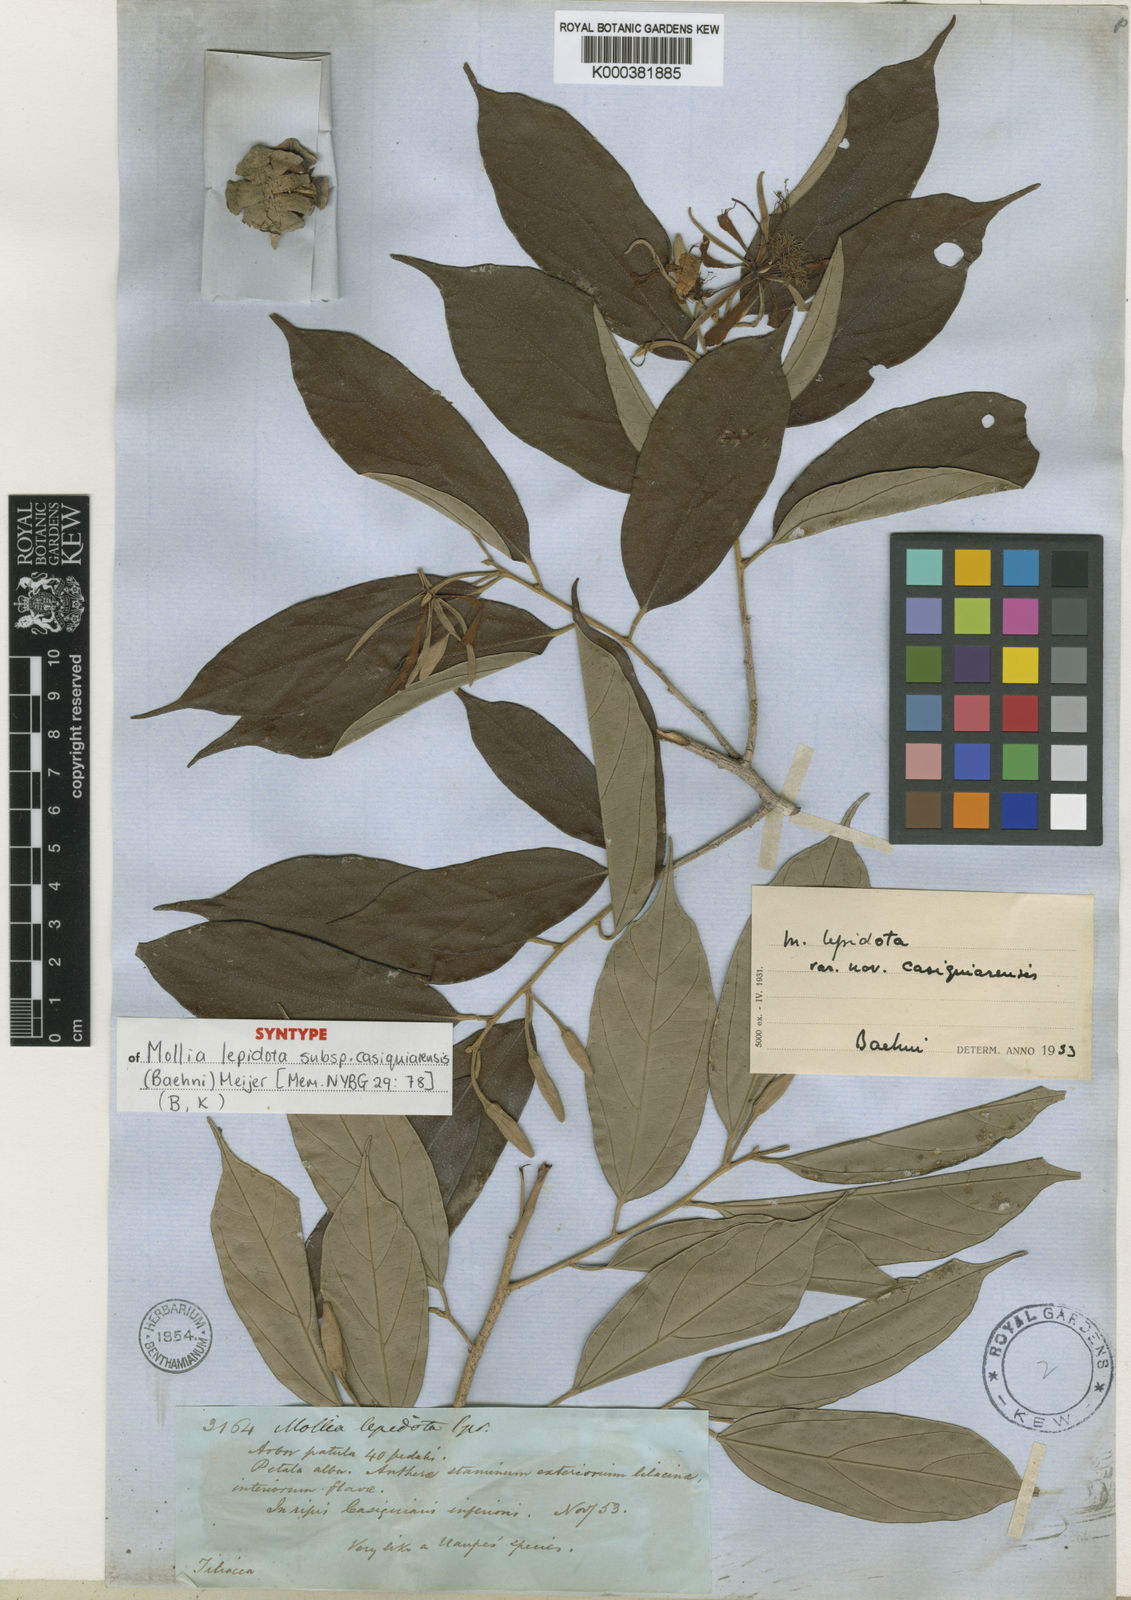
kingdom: Plantae
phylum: Tracheophyta
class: Magnoliopsida
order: Malvales
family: Malvaceae
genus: Mollia
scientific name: Mollia lepidota
